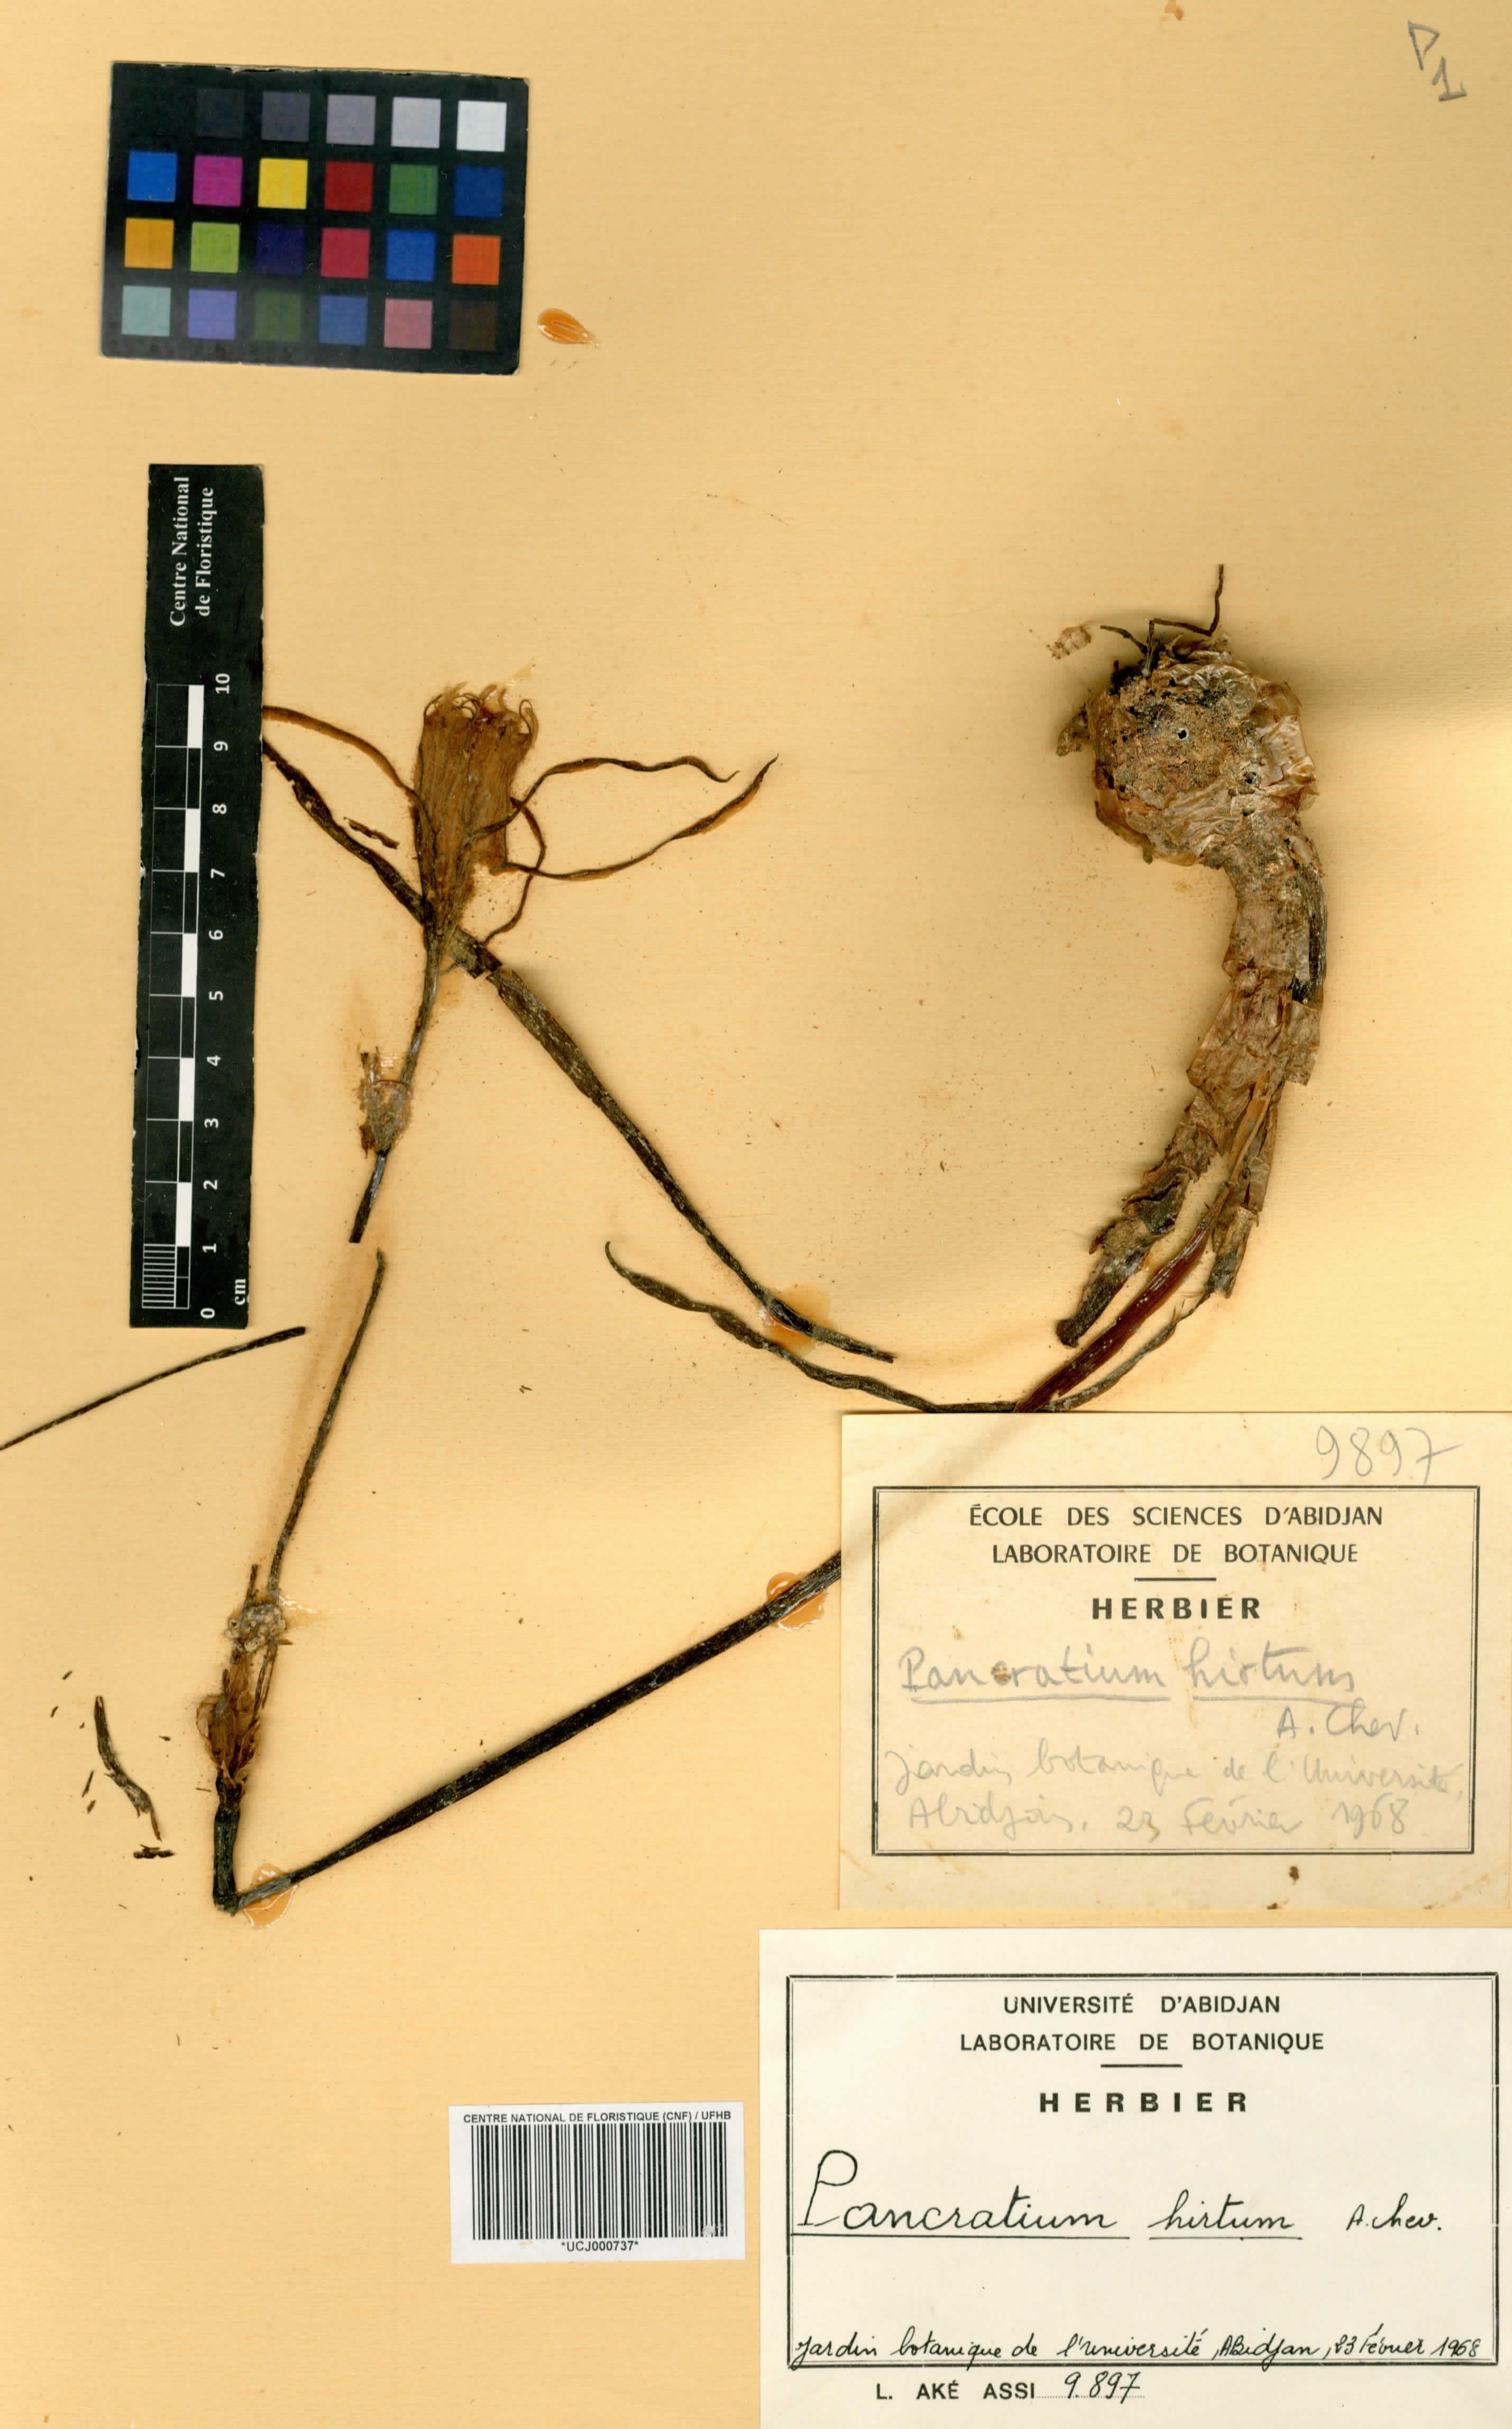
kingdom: Plantae
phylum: Tracheophyta
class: Liliopsida
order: Asparagales
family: Amaryllidaceae
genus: Pancratium
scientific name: Pancratium tenuifolium
